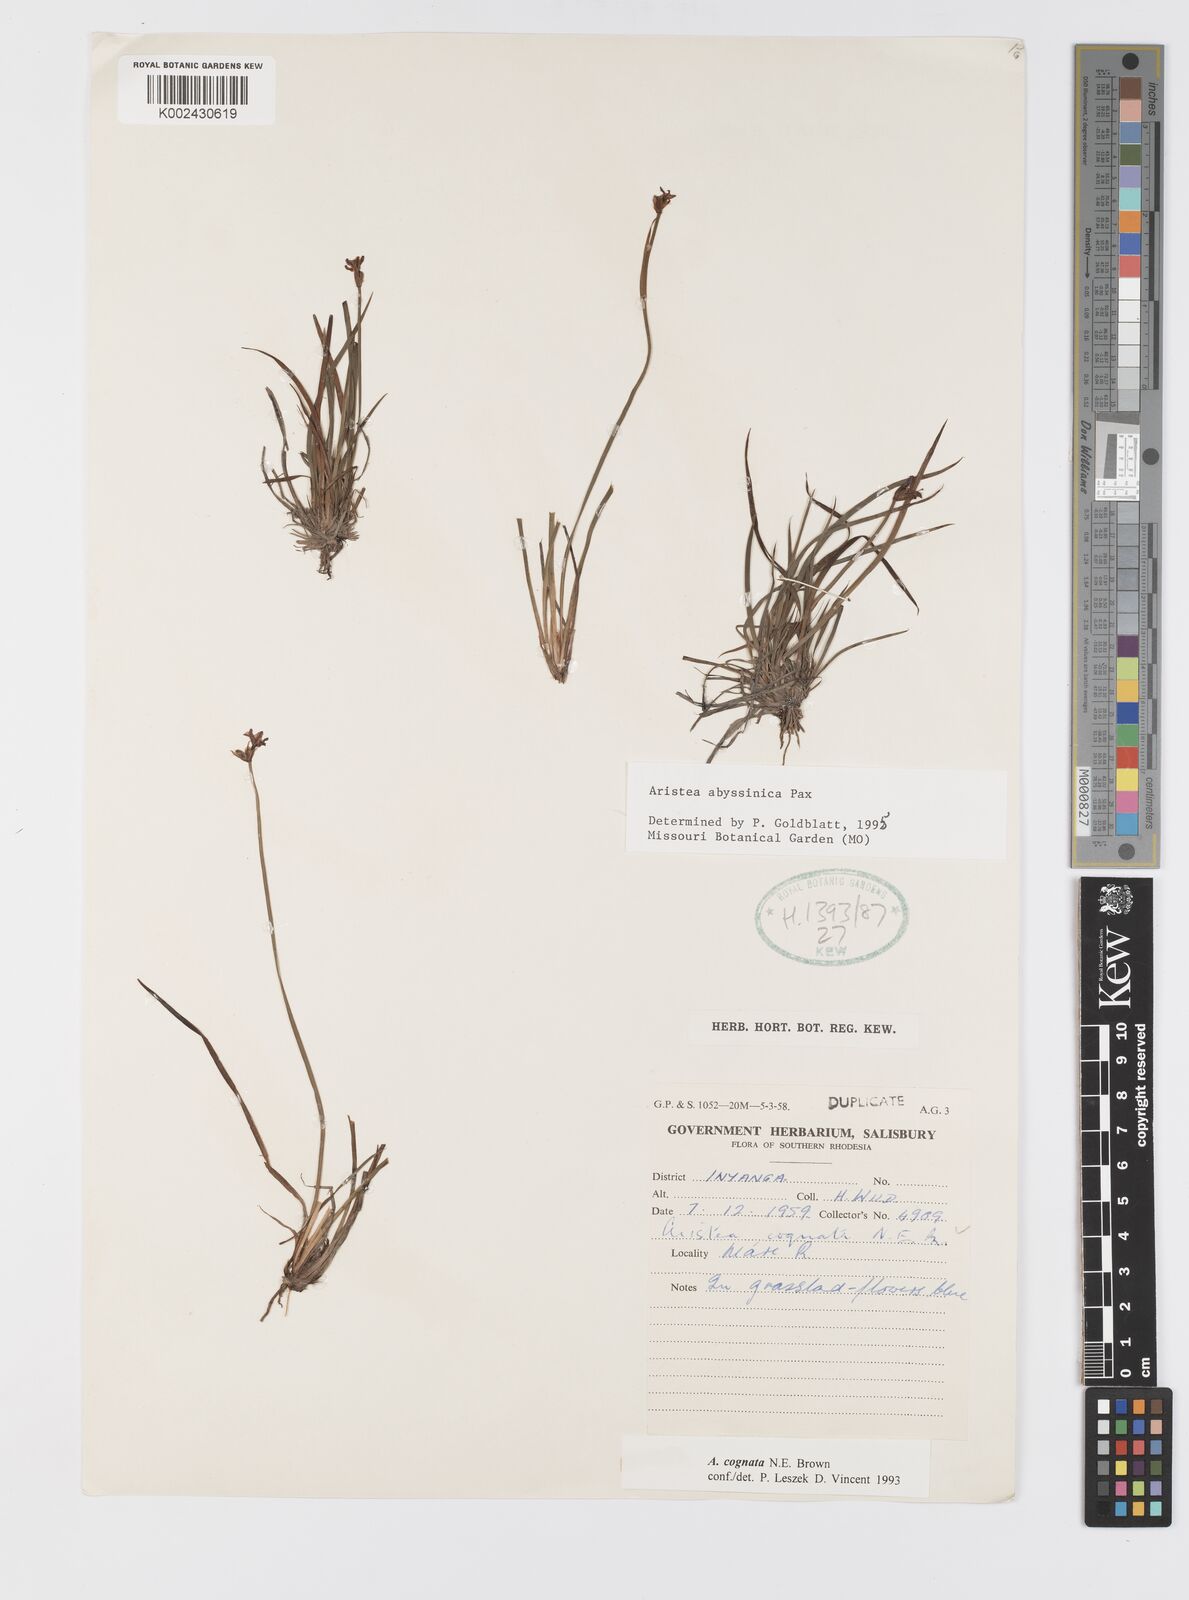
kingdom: Plantae
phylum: Tracheophyta
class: Liliopsida
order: Asparagales
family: Iridaceae
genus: Aristea
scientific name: Aristea abyssinica
